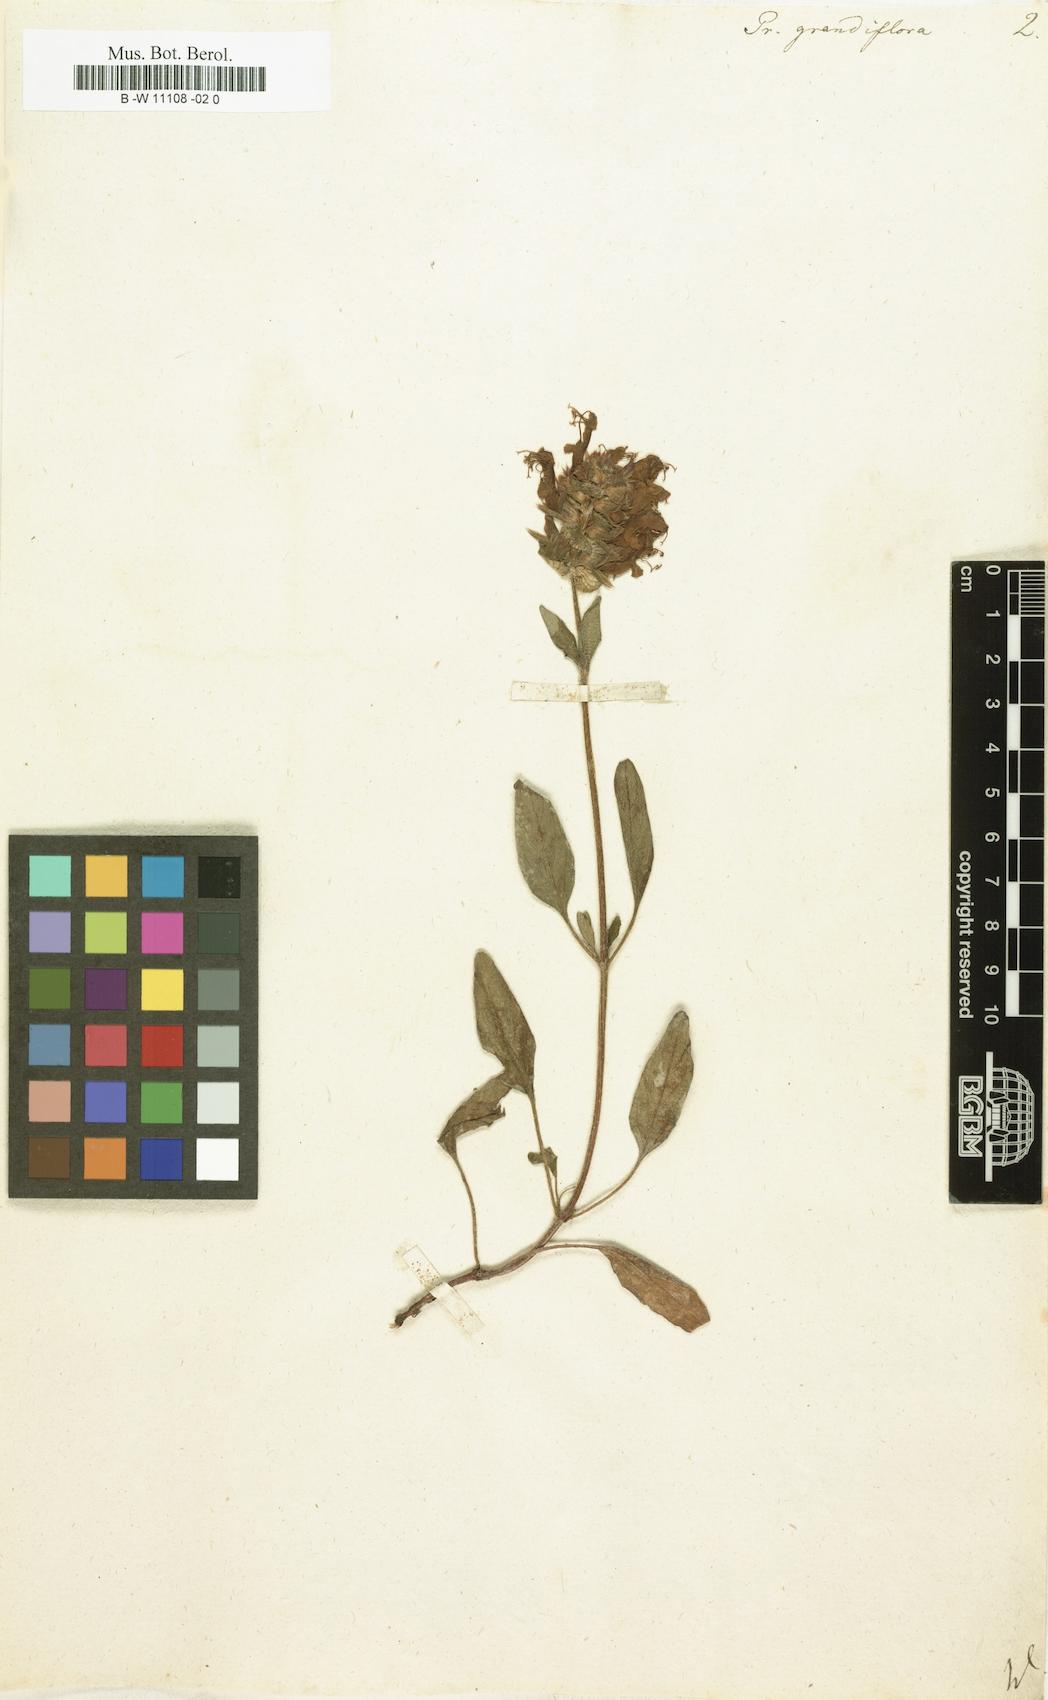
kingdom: Plantae
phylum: Tracheophyta
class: Magnoliopsida
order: Lamiales
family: Lamiaceae
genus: Prunella
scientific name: Prunella grandiflora
